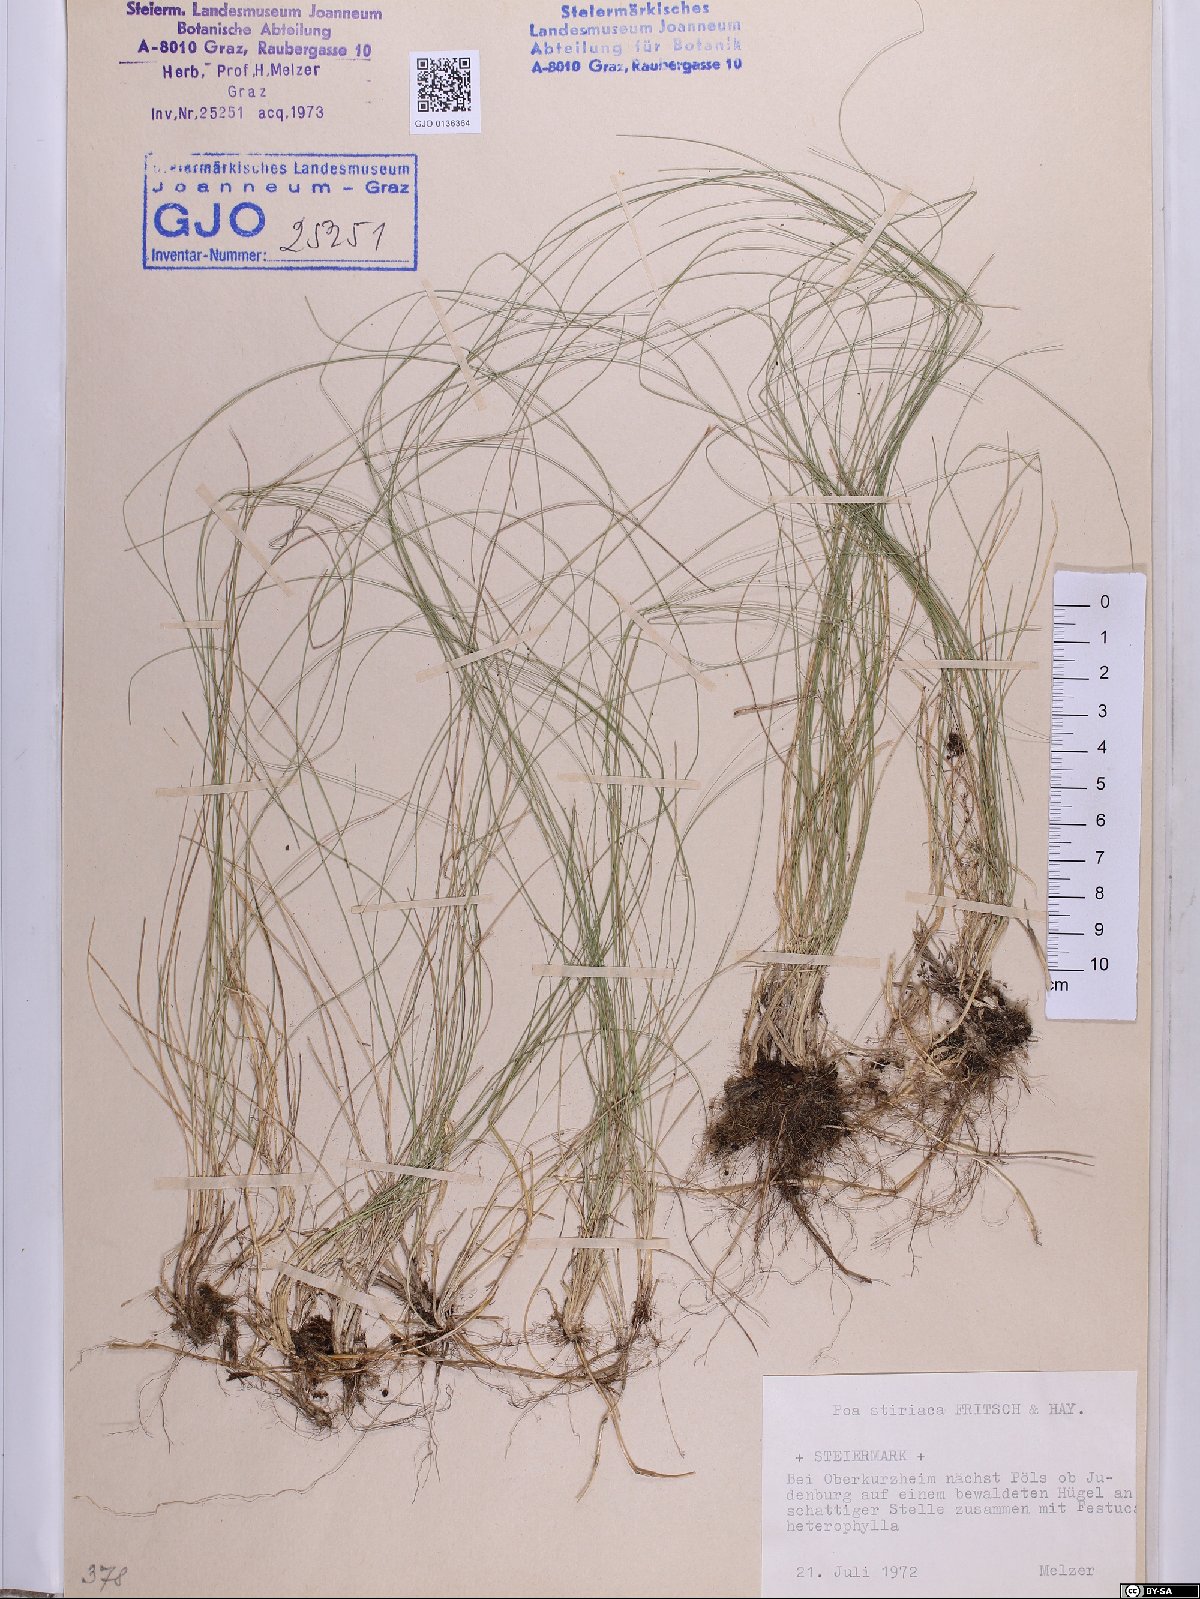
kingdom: Plantae
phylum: Tracheophyta
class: Liliopsida
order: Poales
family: Poaceae
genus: Poa
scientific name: Poa stiriaca
